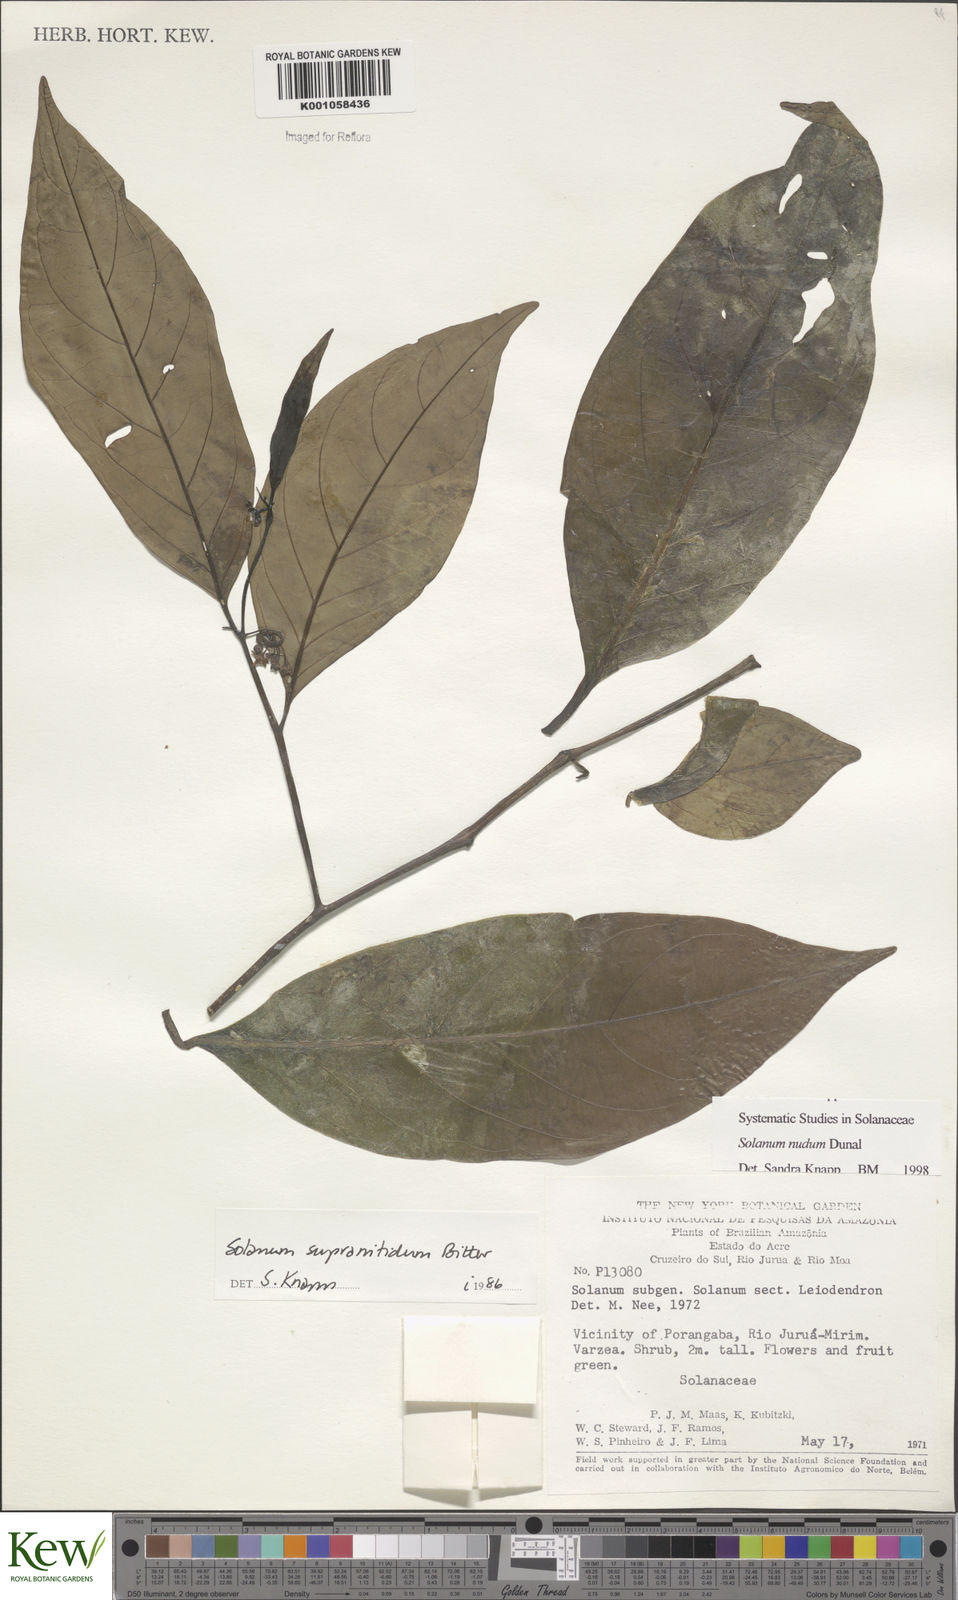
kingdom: Plantae
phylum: Tracheophyta
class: Magnoliopsida
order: Solanales
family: Solanaceae
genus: Solanum
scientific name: Solanum nudum
